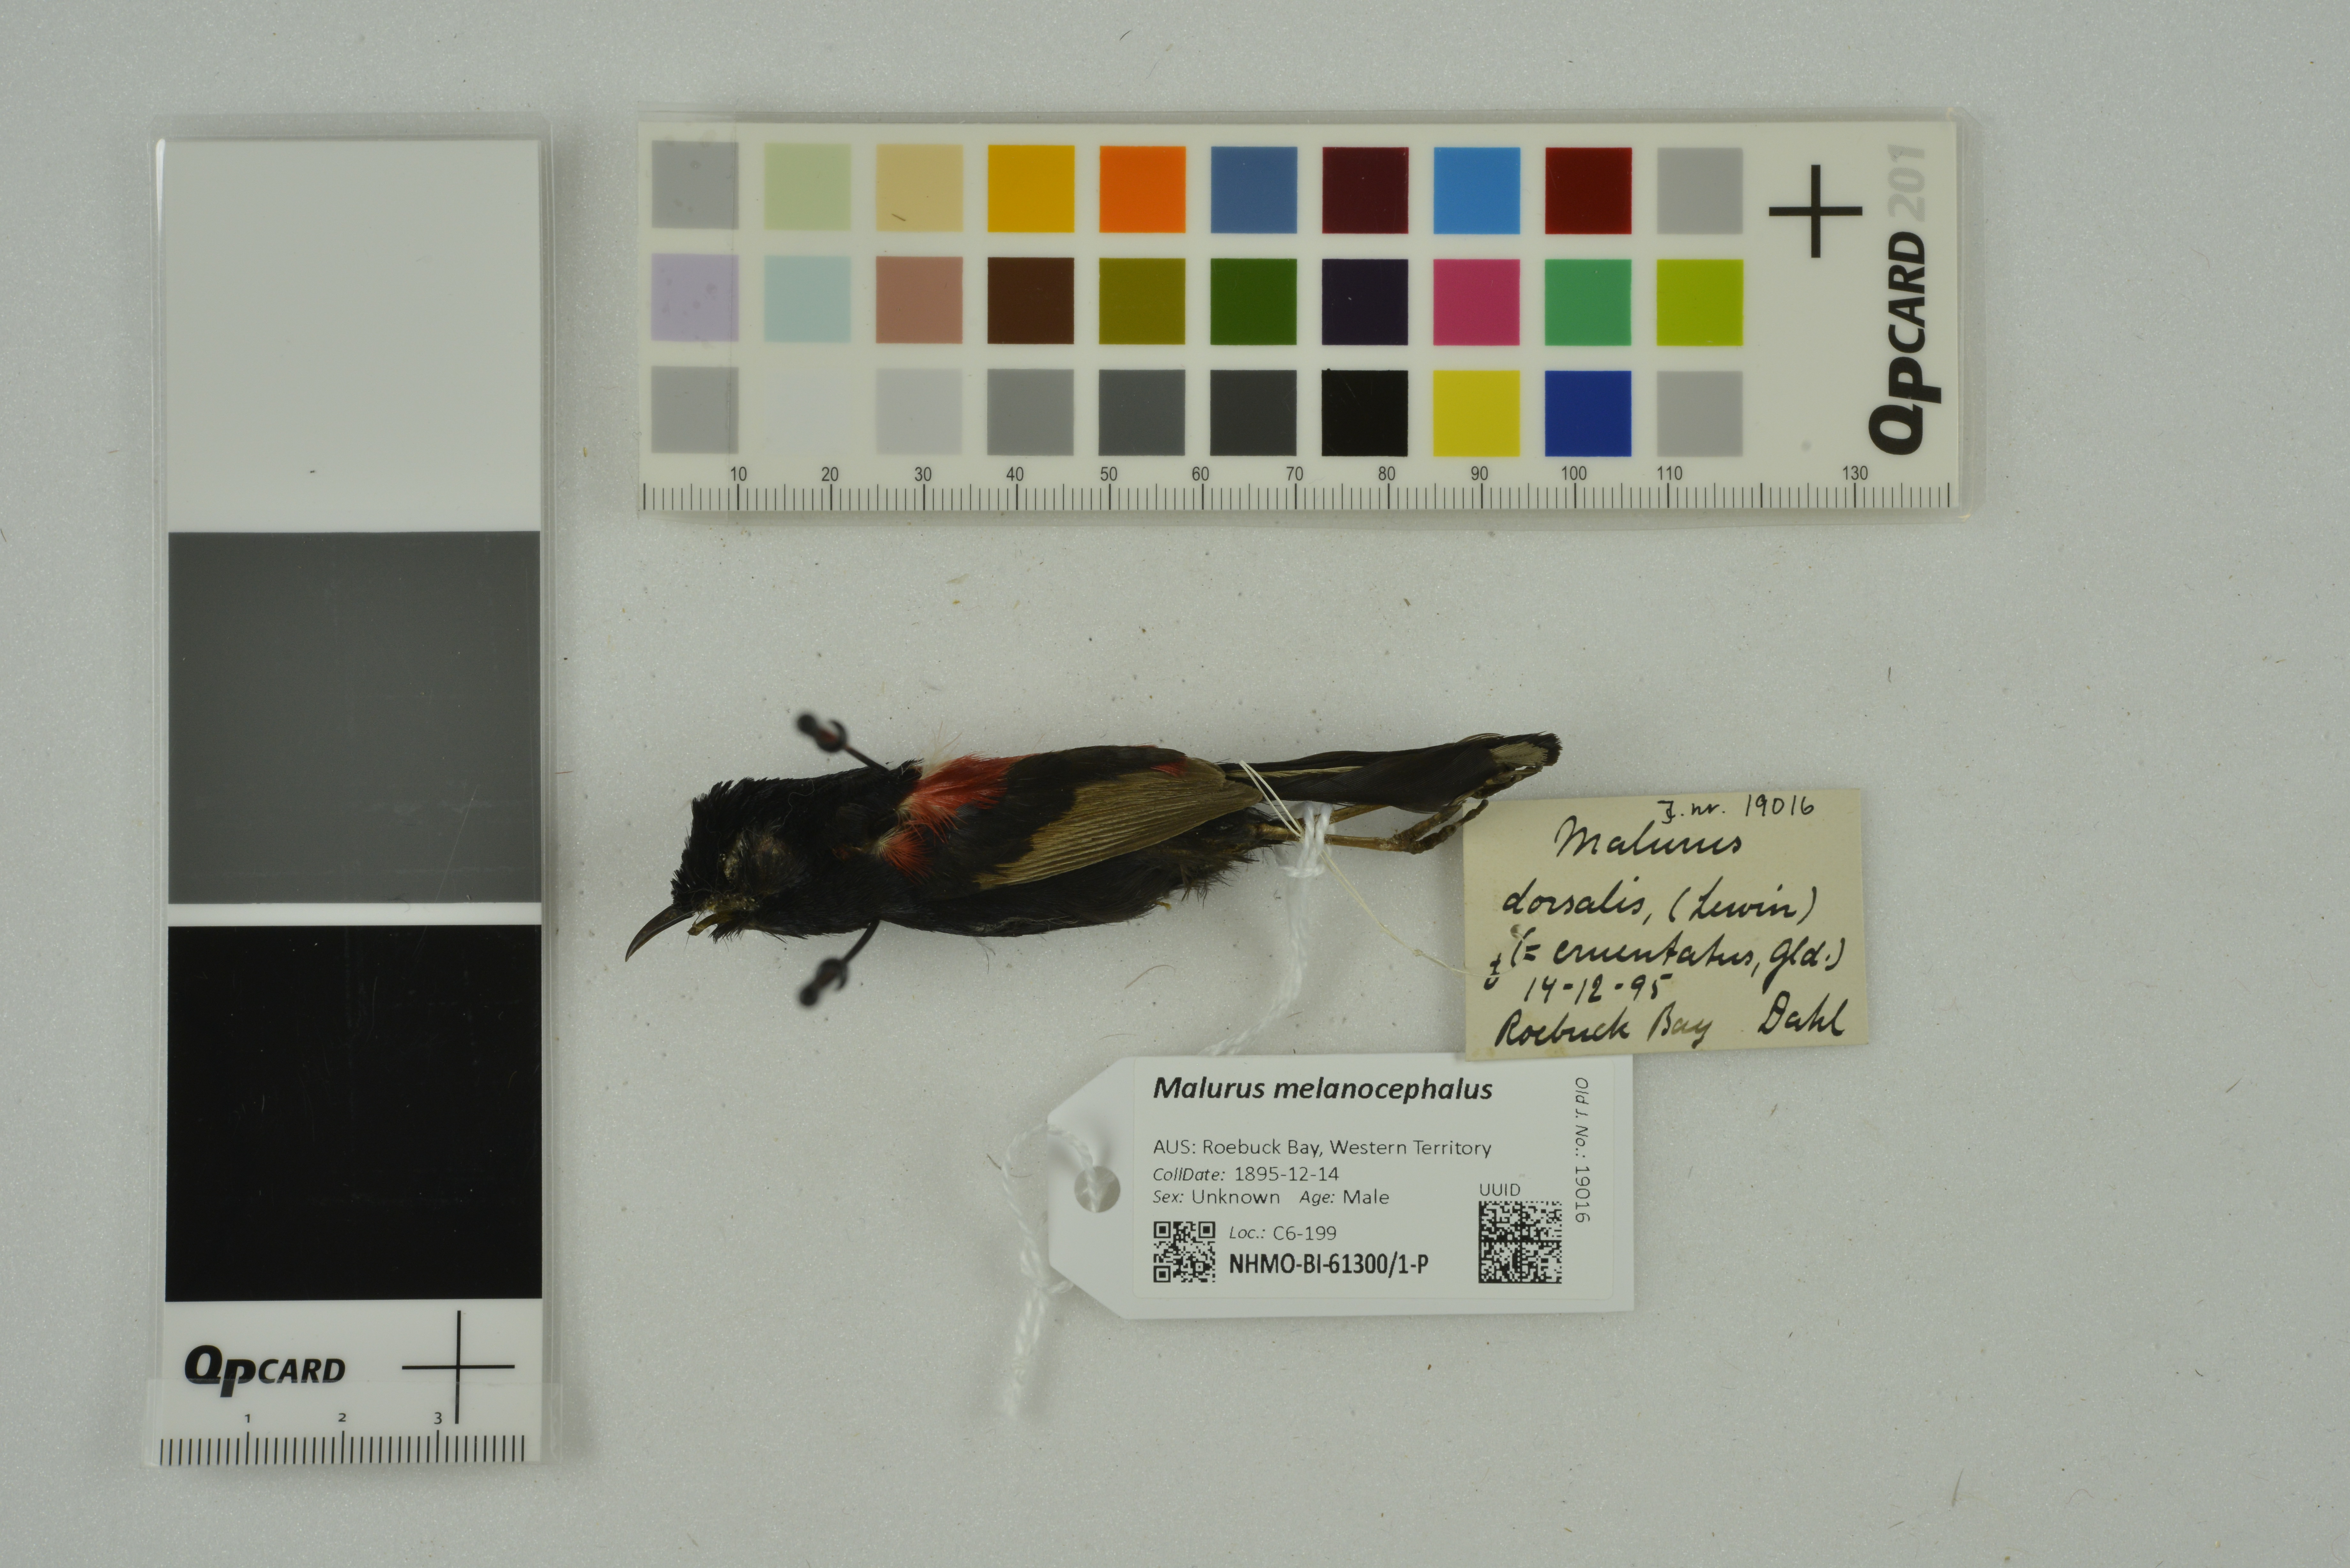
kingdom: Animalia
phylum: Chordata
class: Aves
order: Passeriformes
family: Maluridae
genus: Malurus
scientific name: Malurus melanocephalus
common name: Red-backed fairywren
